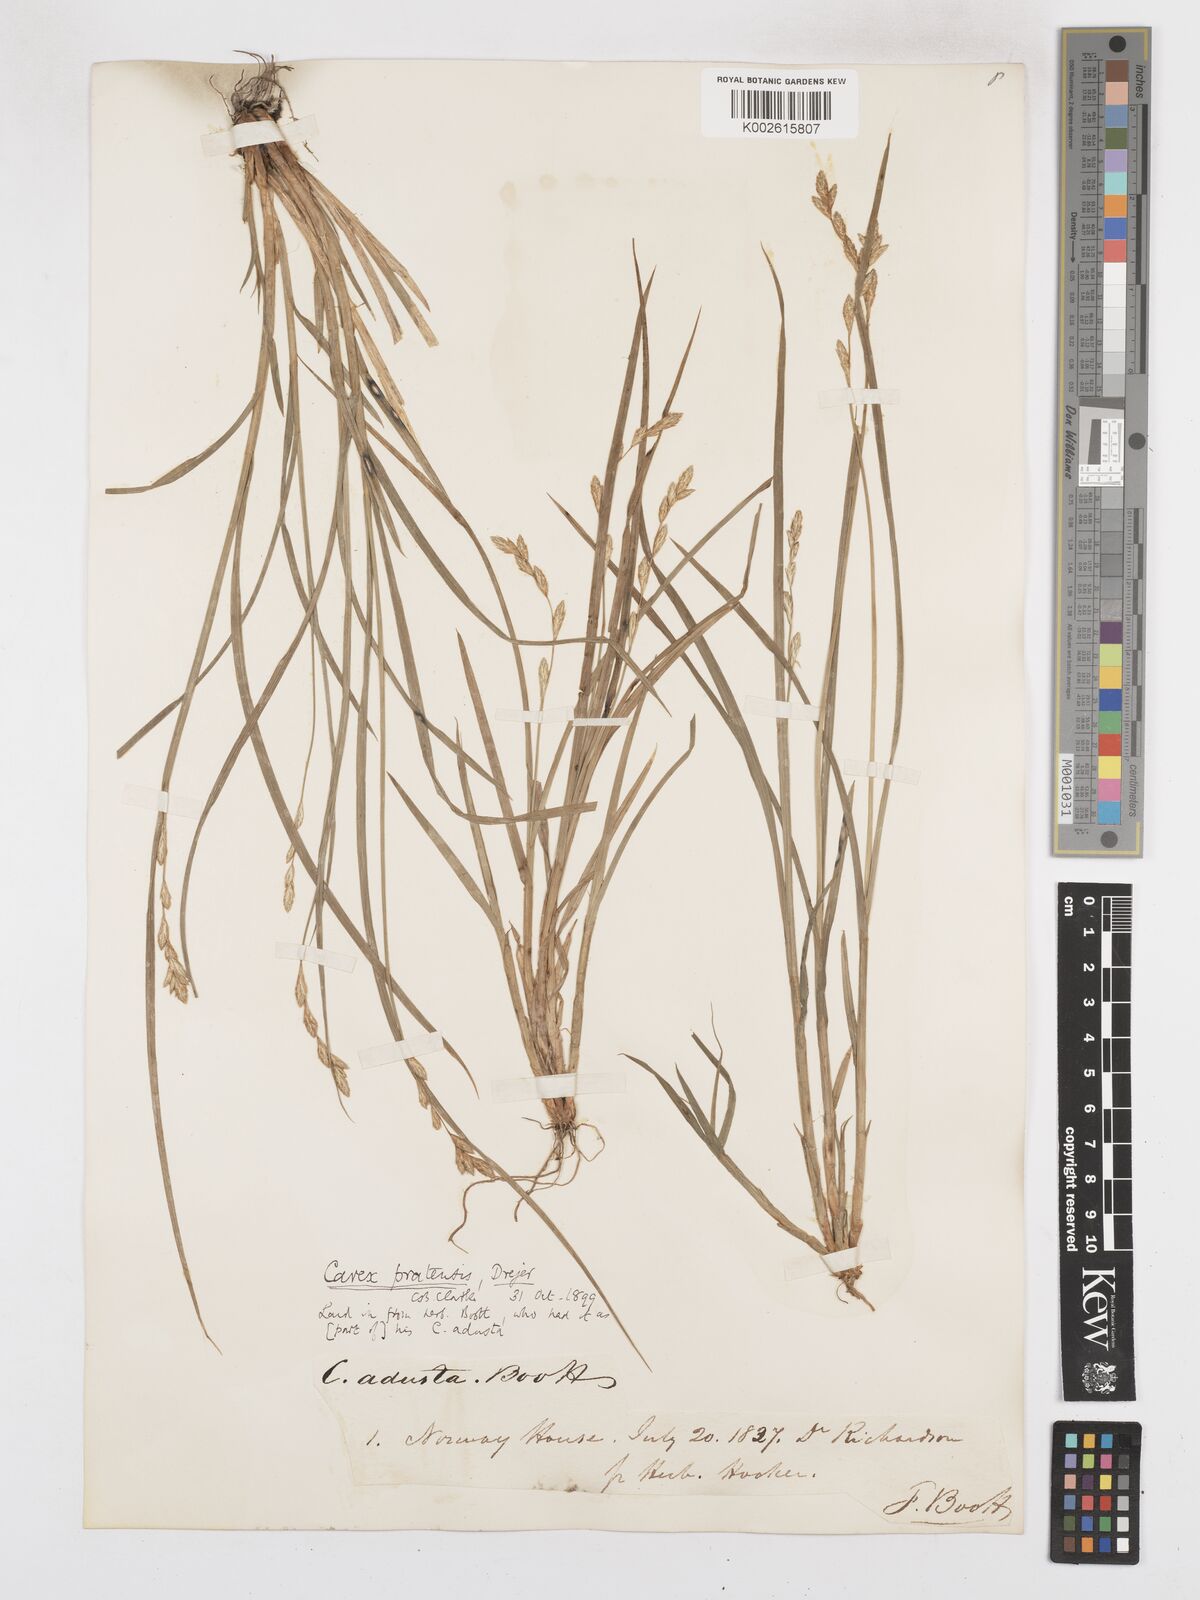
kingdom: Plantae
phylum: Tracheophyta
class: Liliopsida
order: Poales
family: Cyperaceae
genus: Carex
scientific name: Carex praticola
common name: Large-fruited oval sedge
